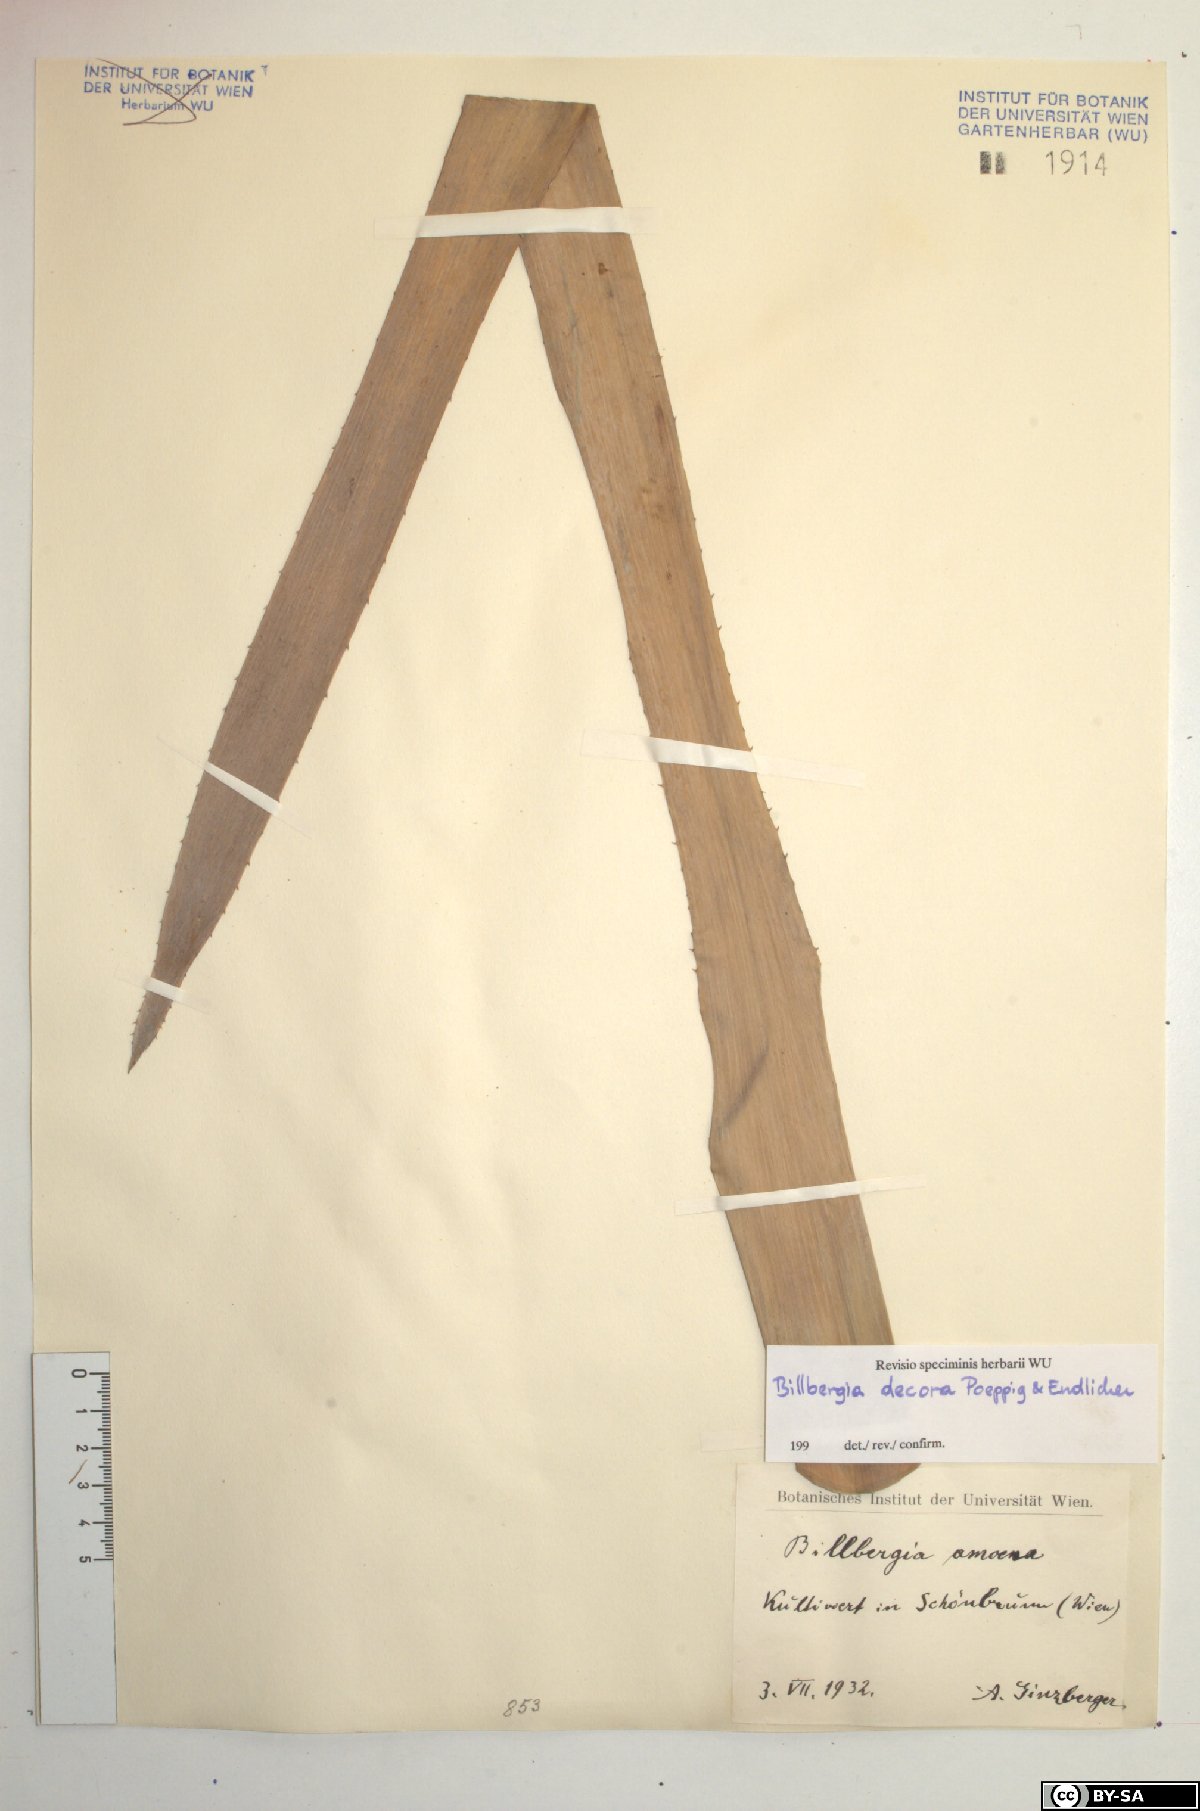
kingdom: Plantae
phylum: Tracheophyta
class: Liliopsida
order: Poales
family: Bromeliaceae
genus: Billbergia
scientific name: Billbergia decora
